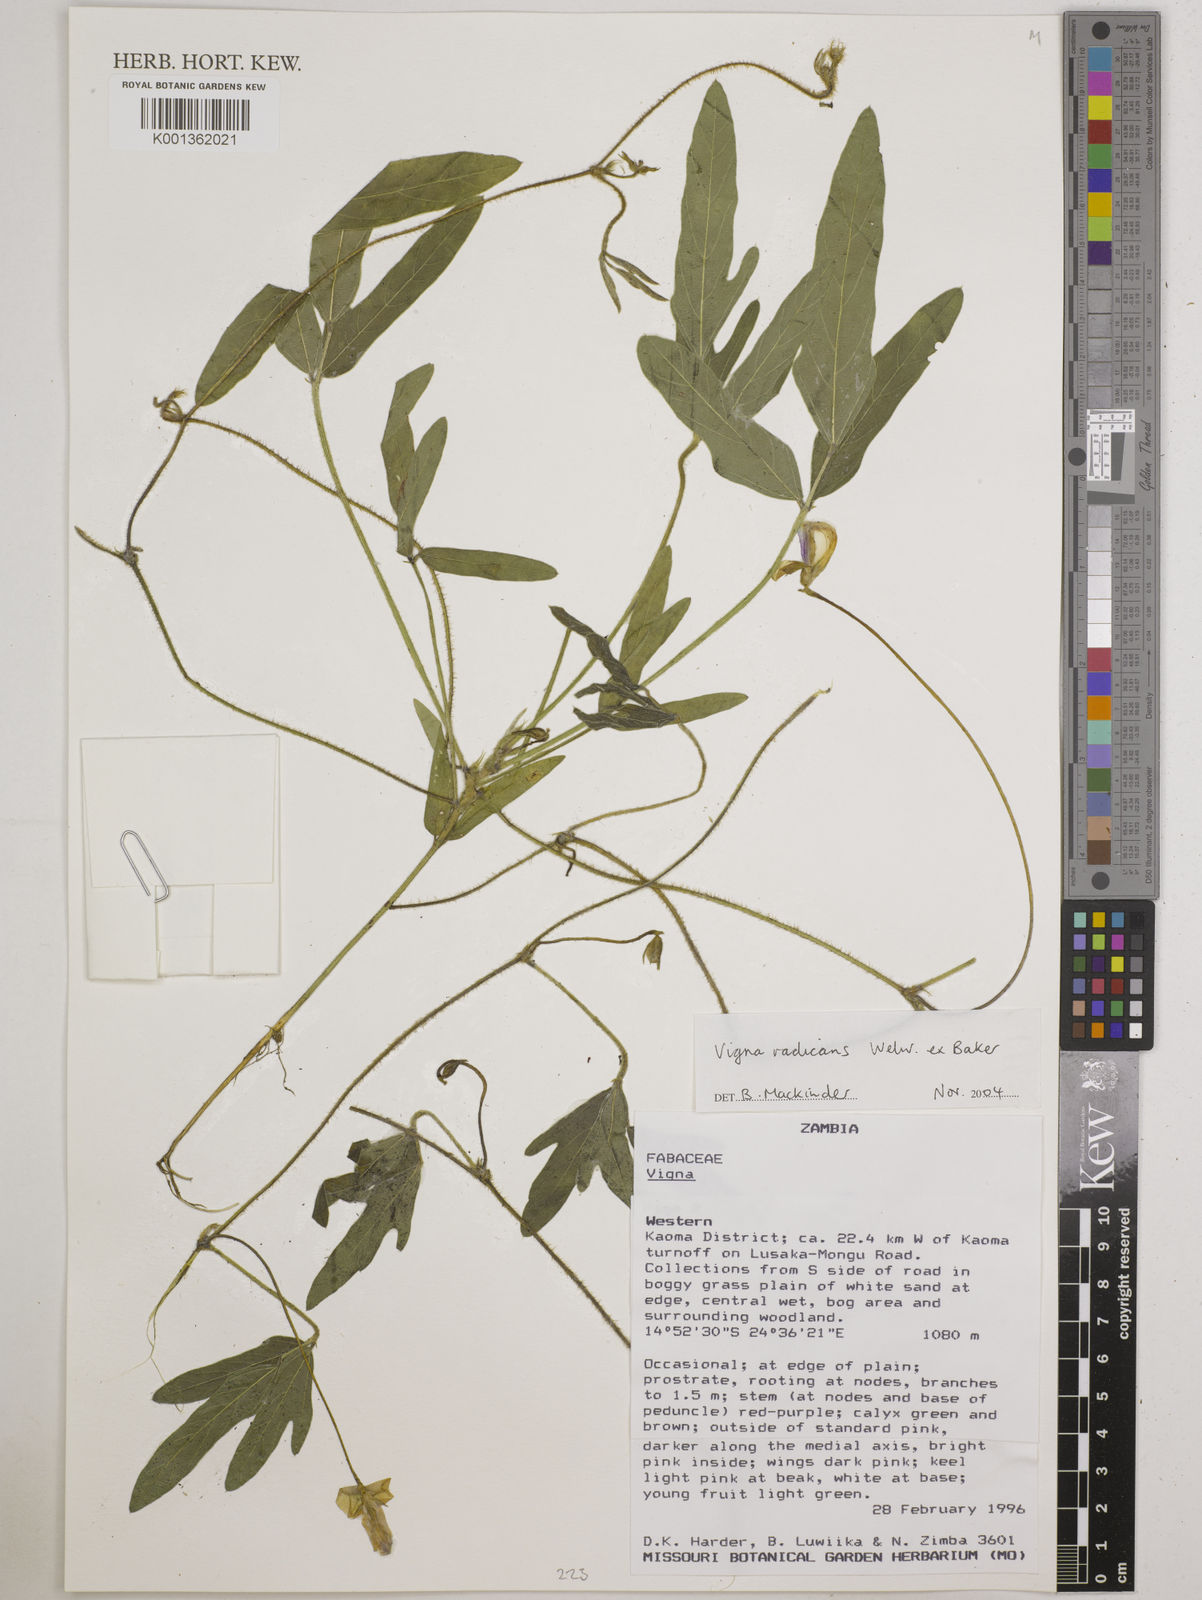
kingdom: Plantae
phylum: Tracheophyta
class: Magnoliopsida
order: Fabales
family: Fabaceae
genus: Vigna
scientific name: Vigna radicans
